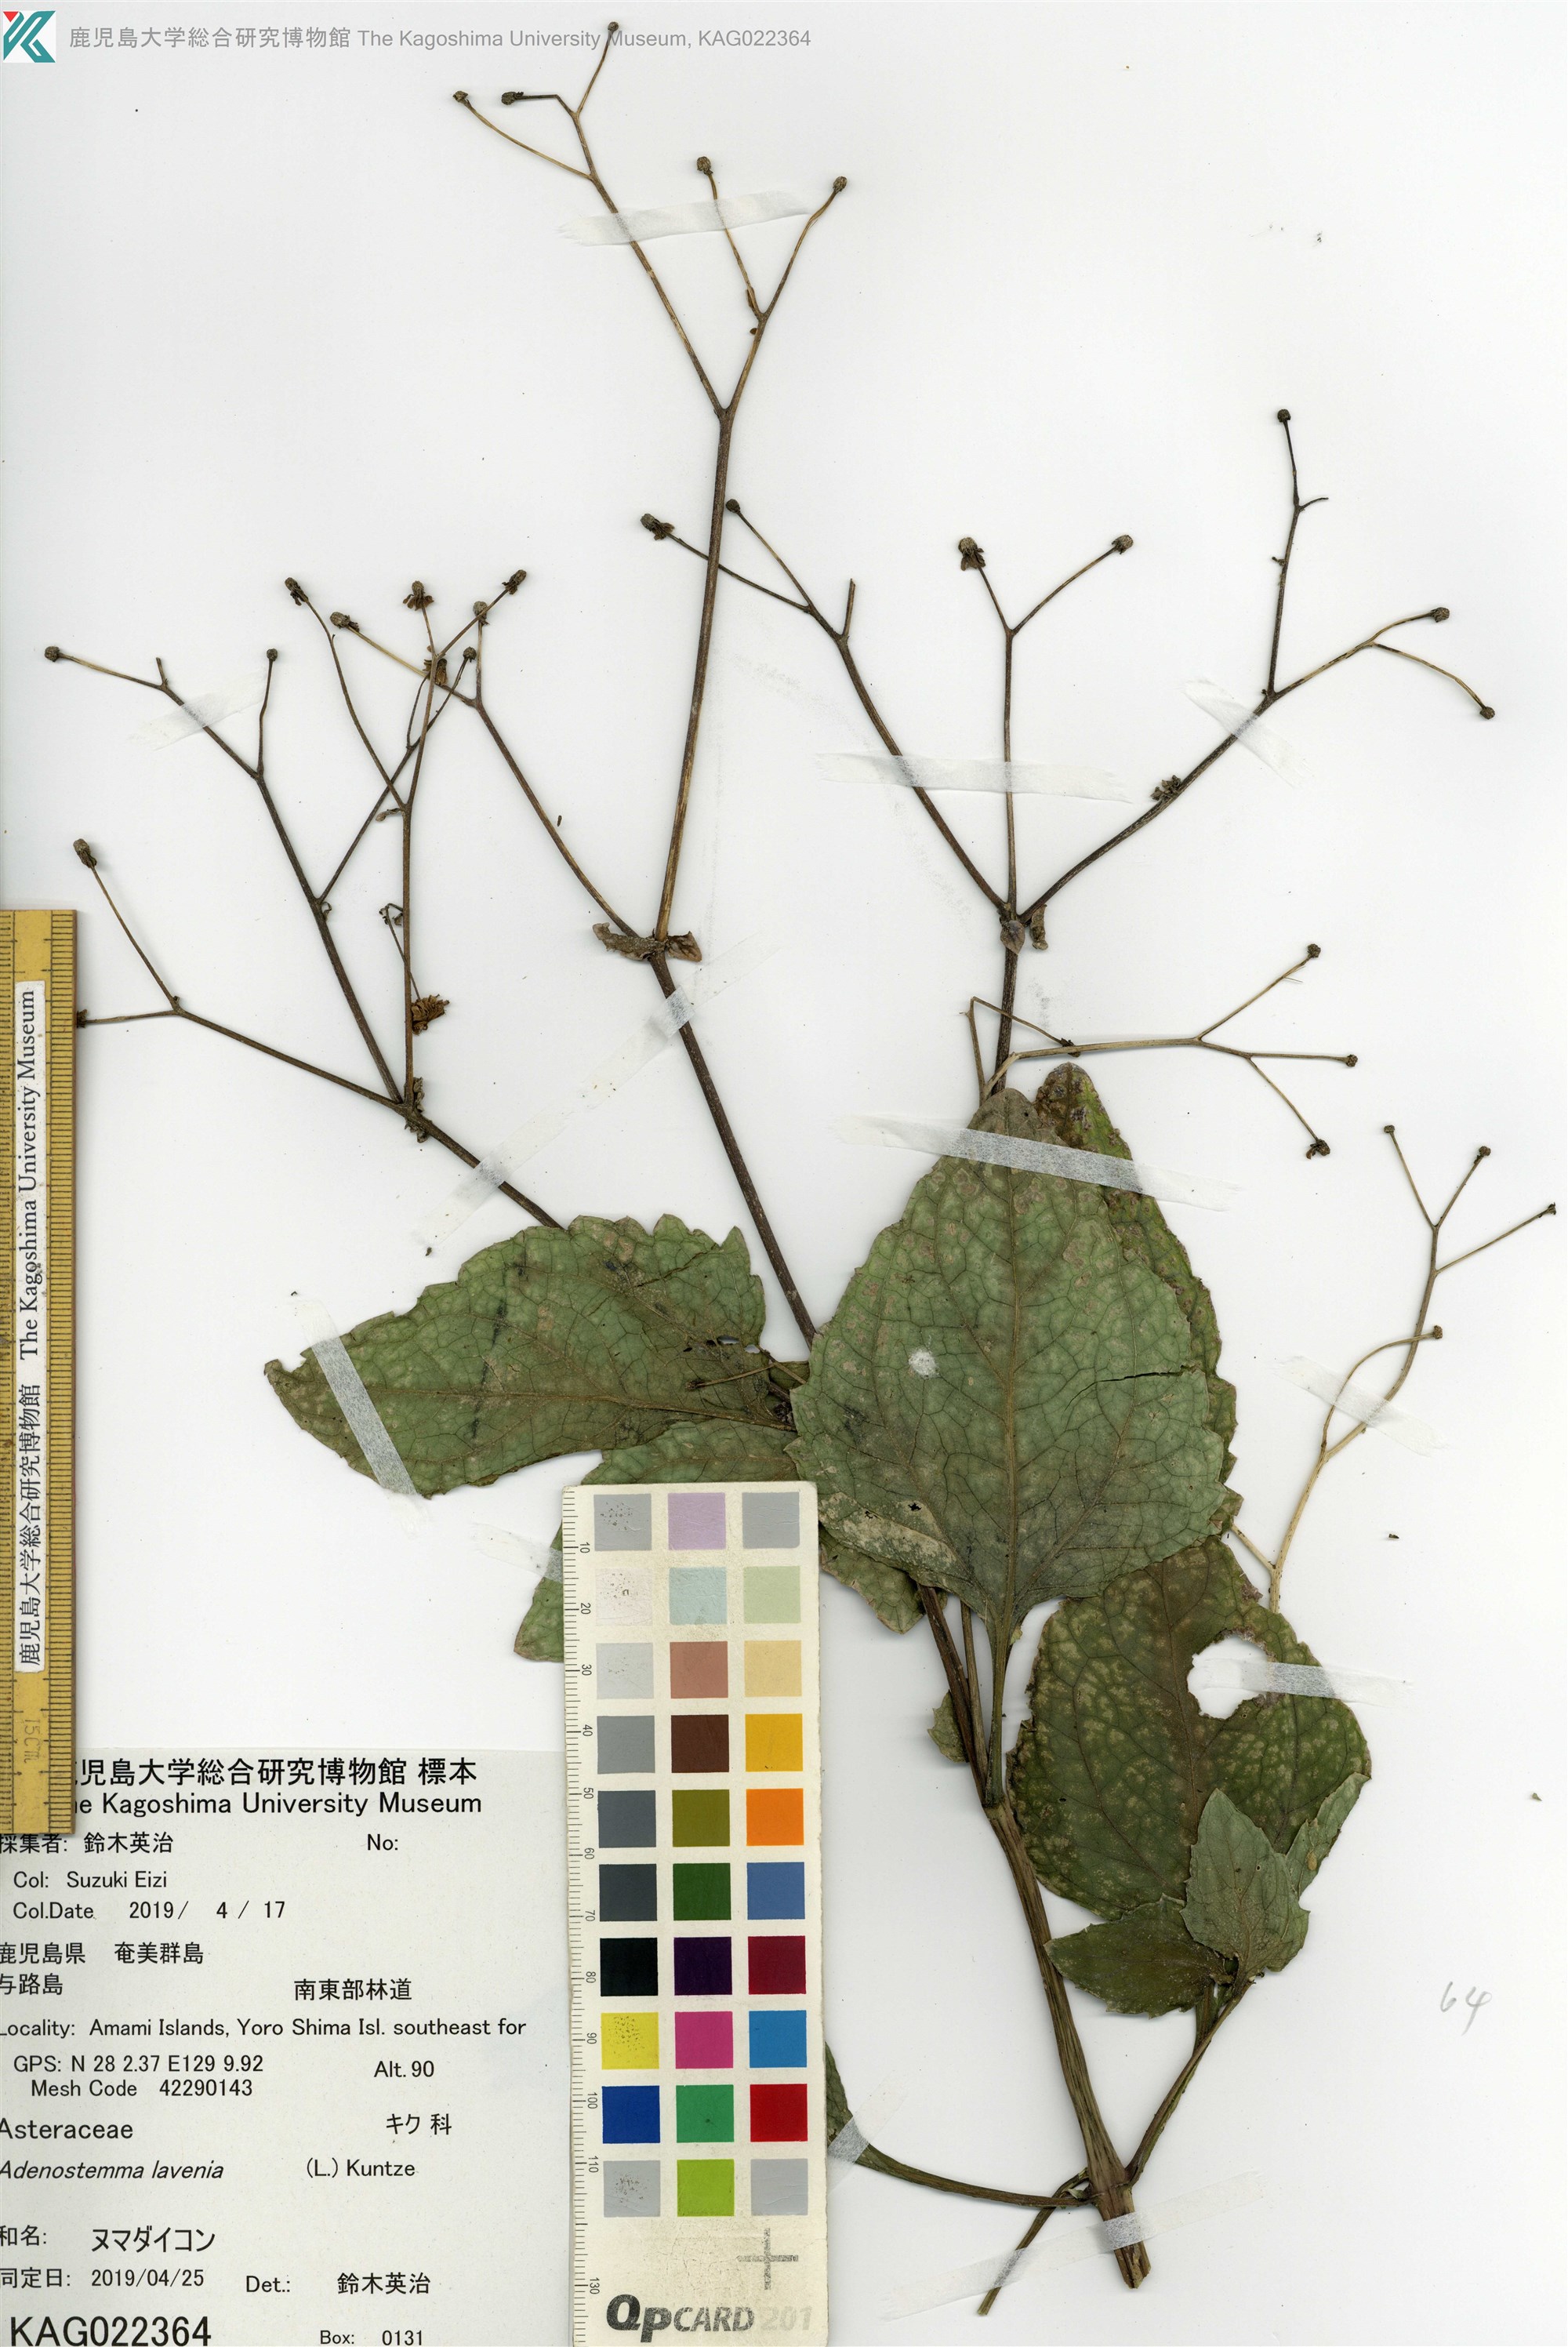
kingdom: Plantae
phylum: Tracheophyta
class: Magnoliopsida
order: Asterales
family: Asteraceae
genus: Adenostemma
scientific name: Adenostemma lavenia
